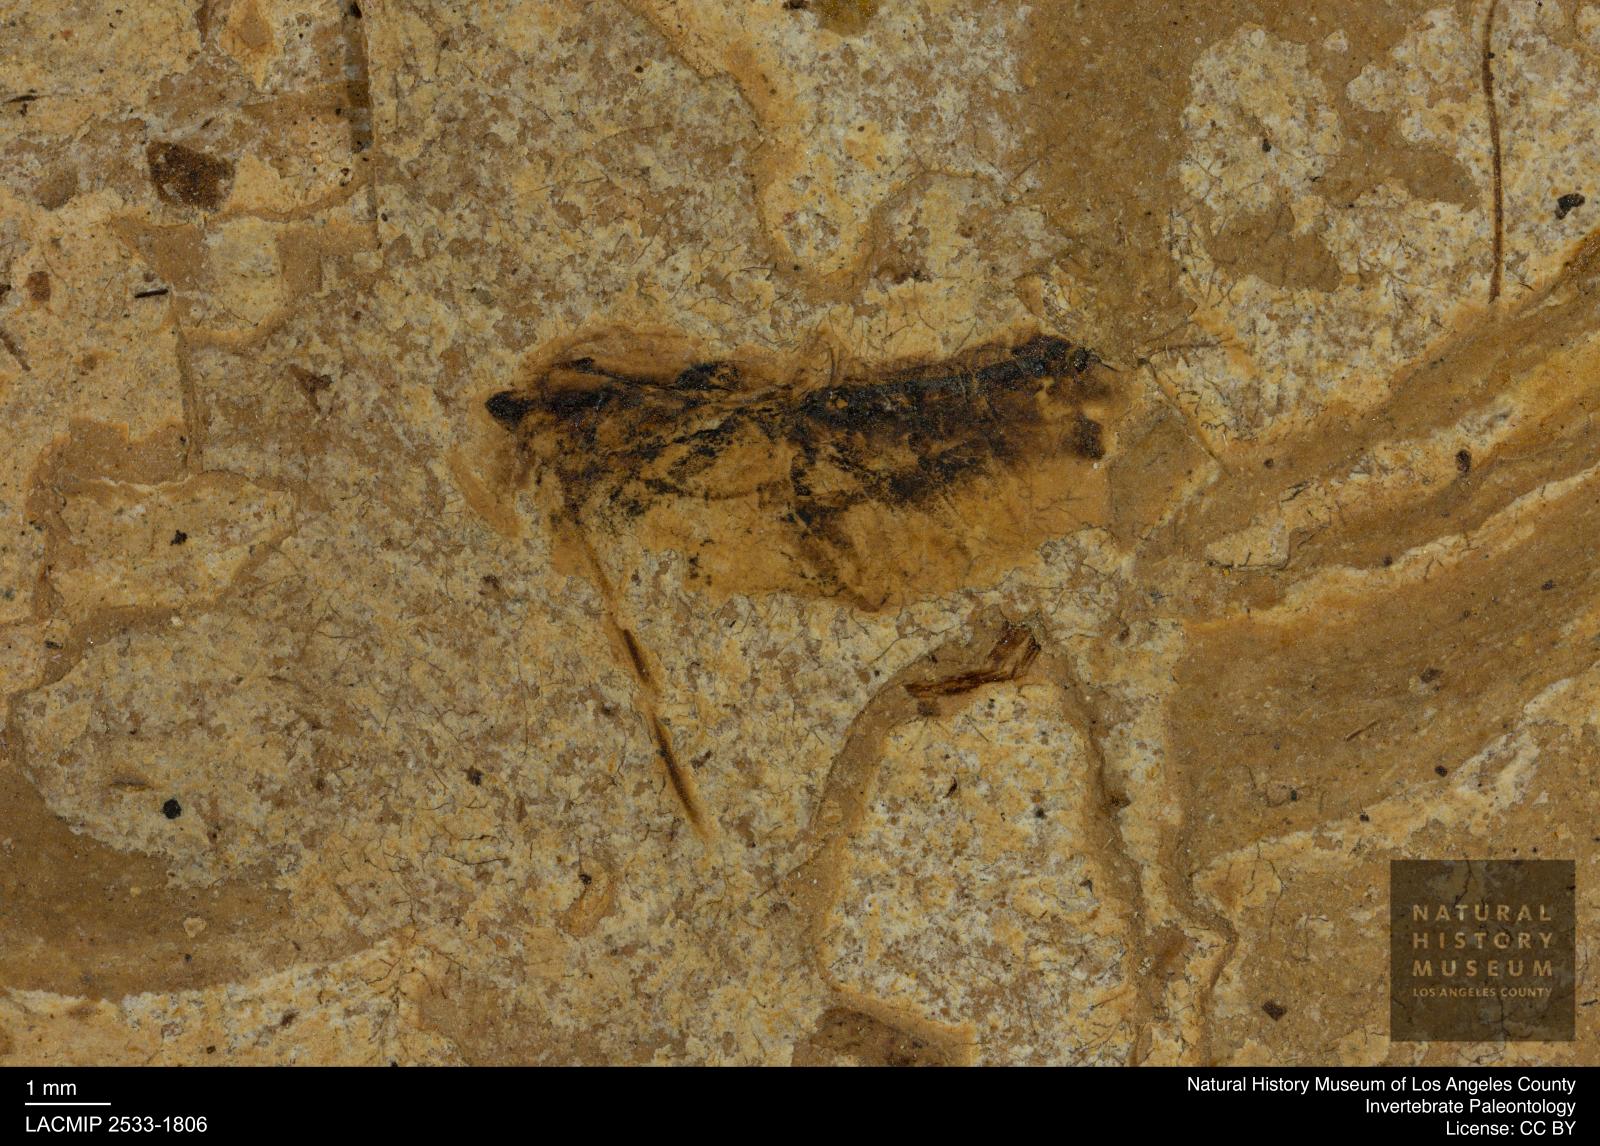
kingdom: Animalia
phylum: Arthropoda
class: Insecta
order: Hemiptera
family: Notonectidae
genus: Notonecta
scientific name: Notonecta
